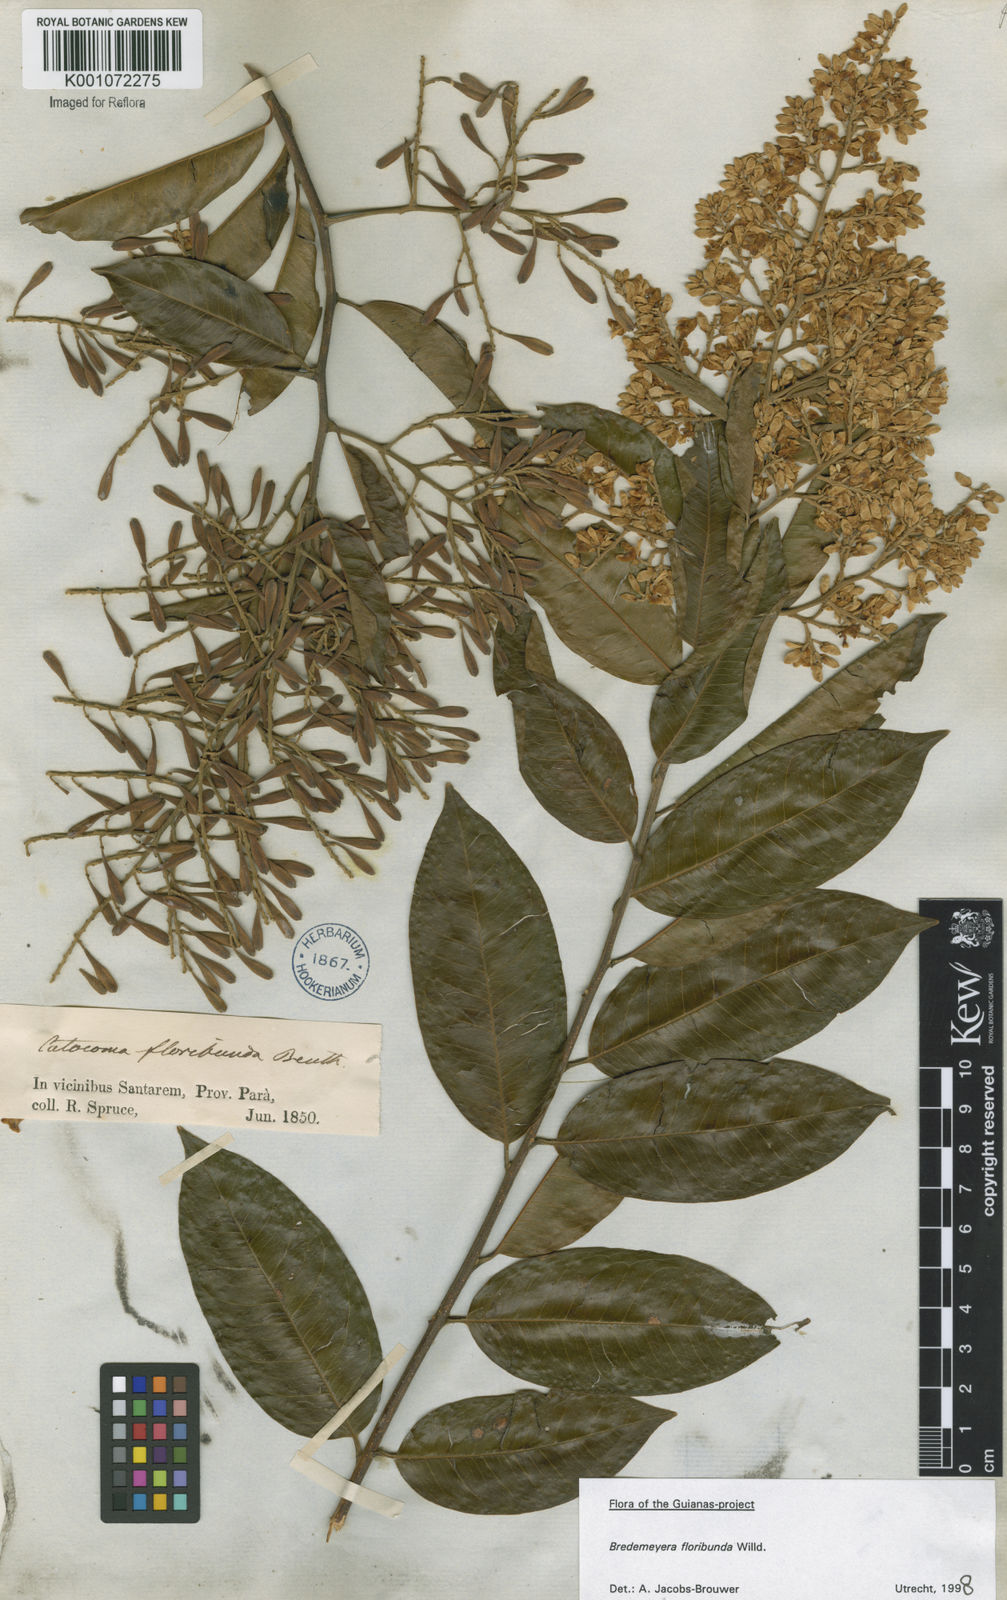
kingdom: Plantae
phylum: Tracheophyta
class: Magnoliopsida
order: Fabales
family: Polygalaceae
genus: Bredemeyera
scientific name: Bredemeyera floribunda
